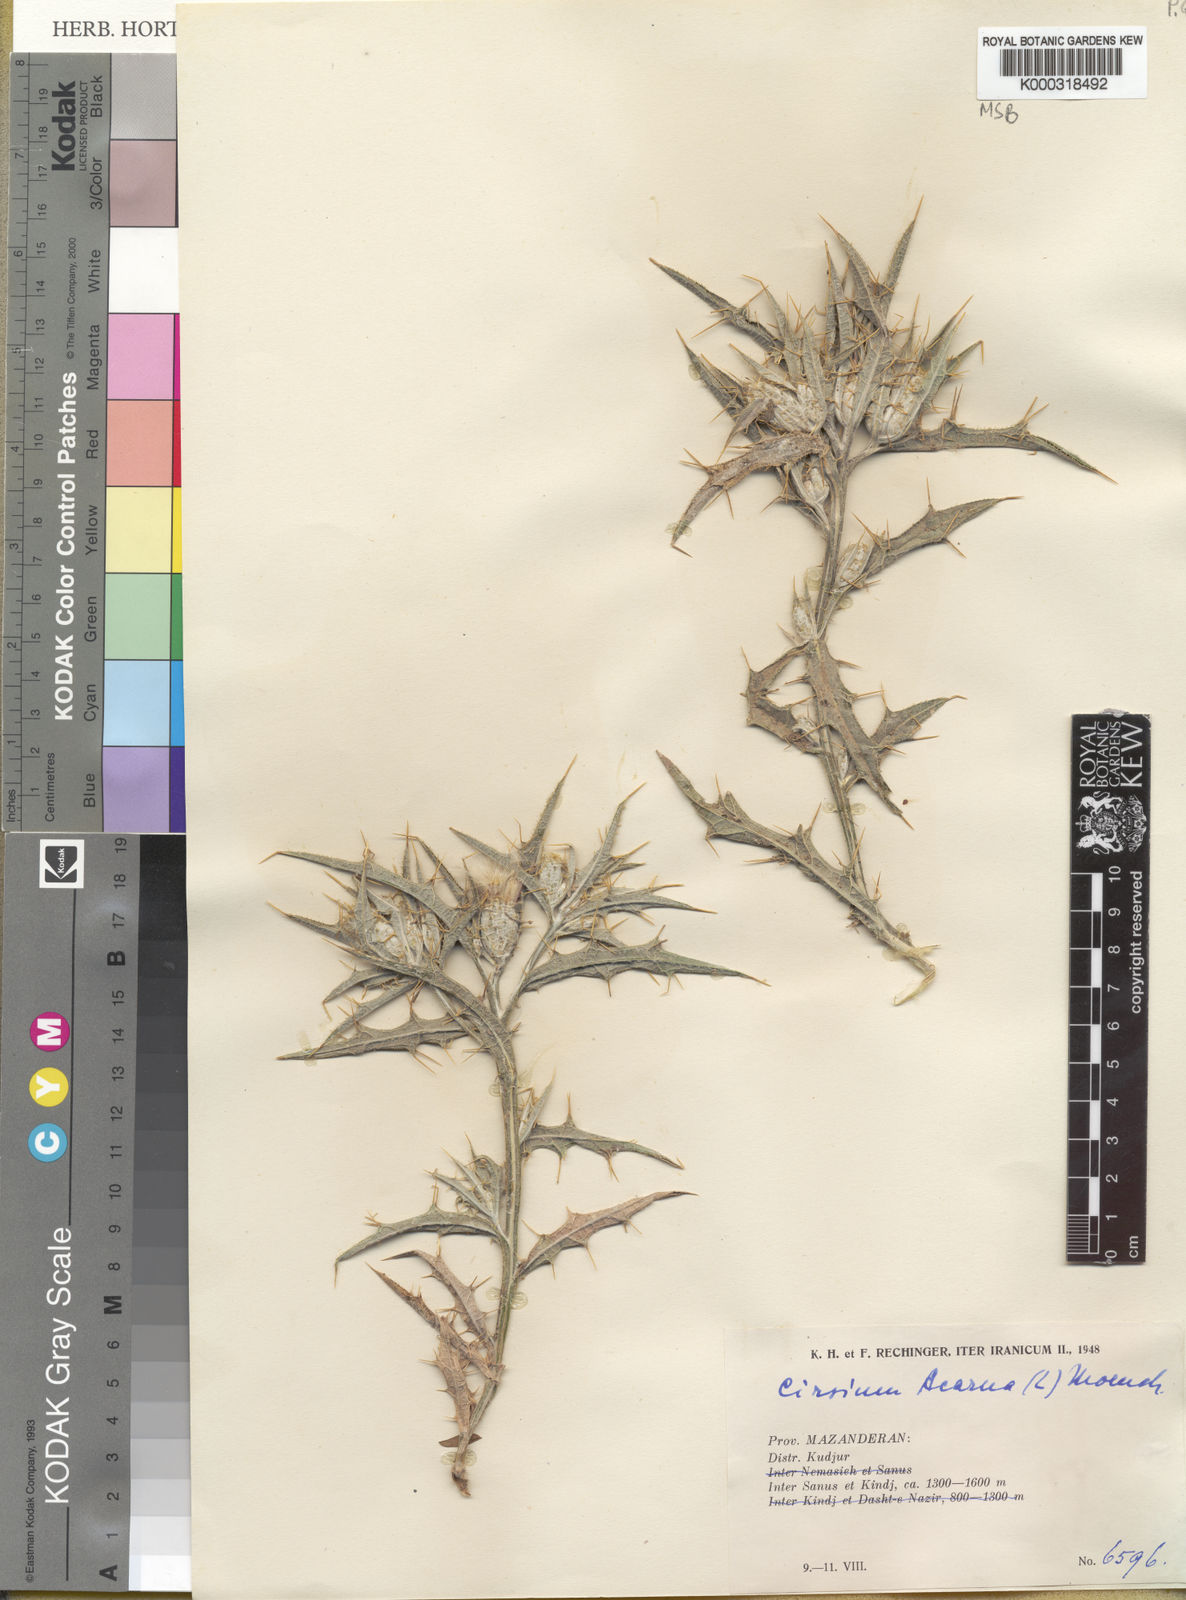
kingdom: Plantae
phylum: Tracheophyta
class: Magnoliopsida
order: Asterales
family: Asteraceae
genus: Picnomon
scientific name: Picnomon acarna
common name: Soldier thistle
